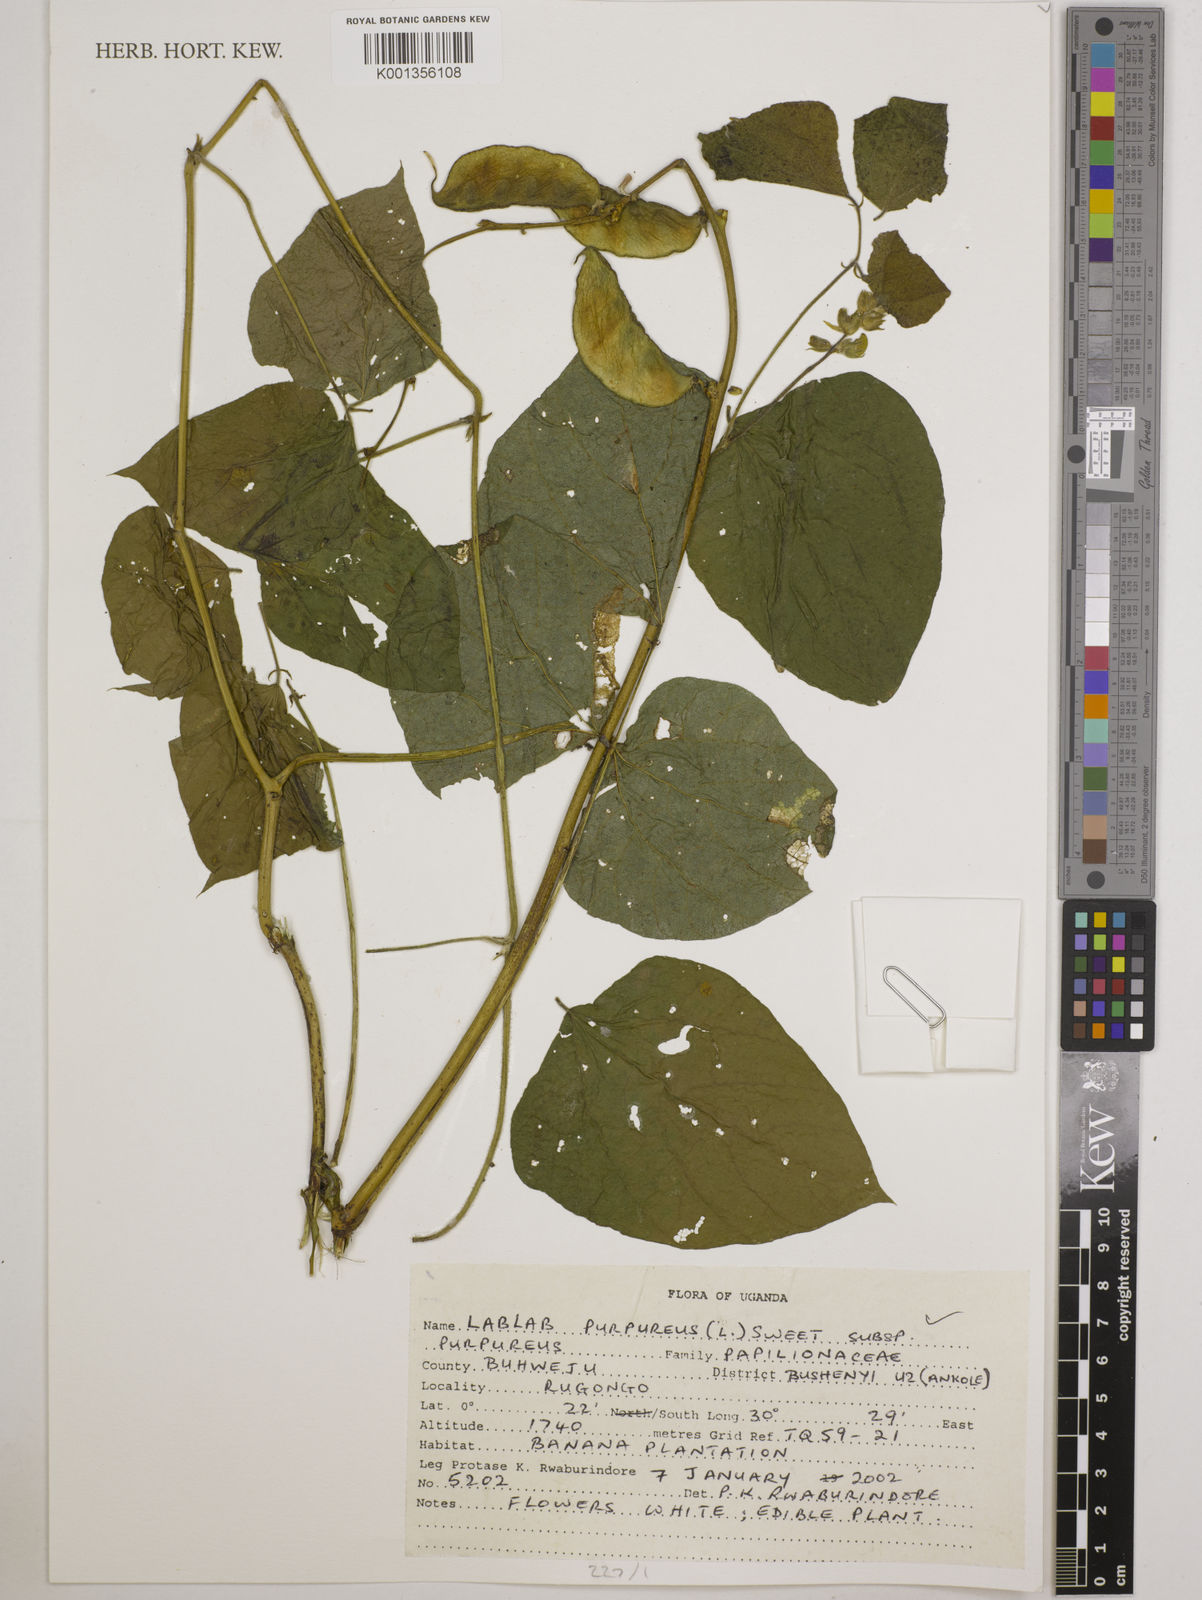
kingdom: Plantae
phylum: Tracheophyta
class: Magnoliopsida
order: Fabales
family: Fabaceae
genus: Lablab
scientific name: Lablab purpureus
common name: Lablab-bean
